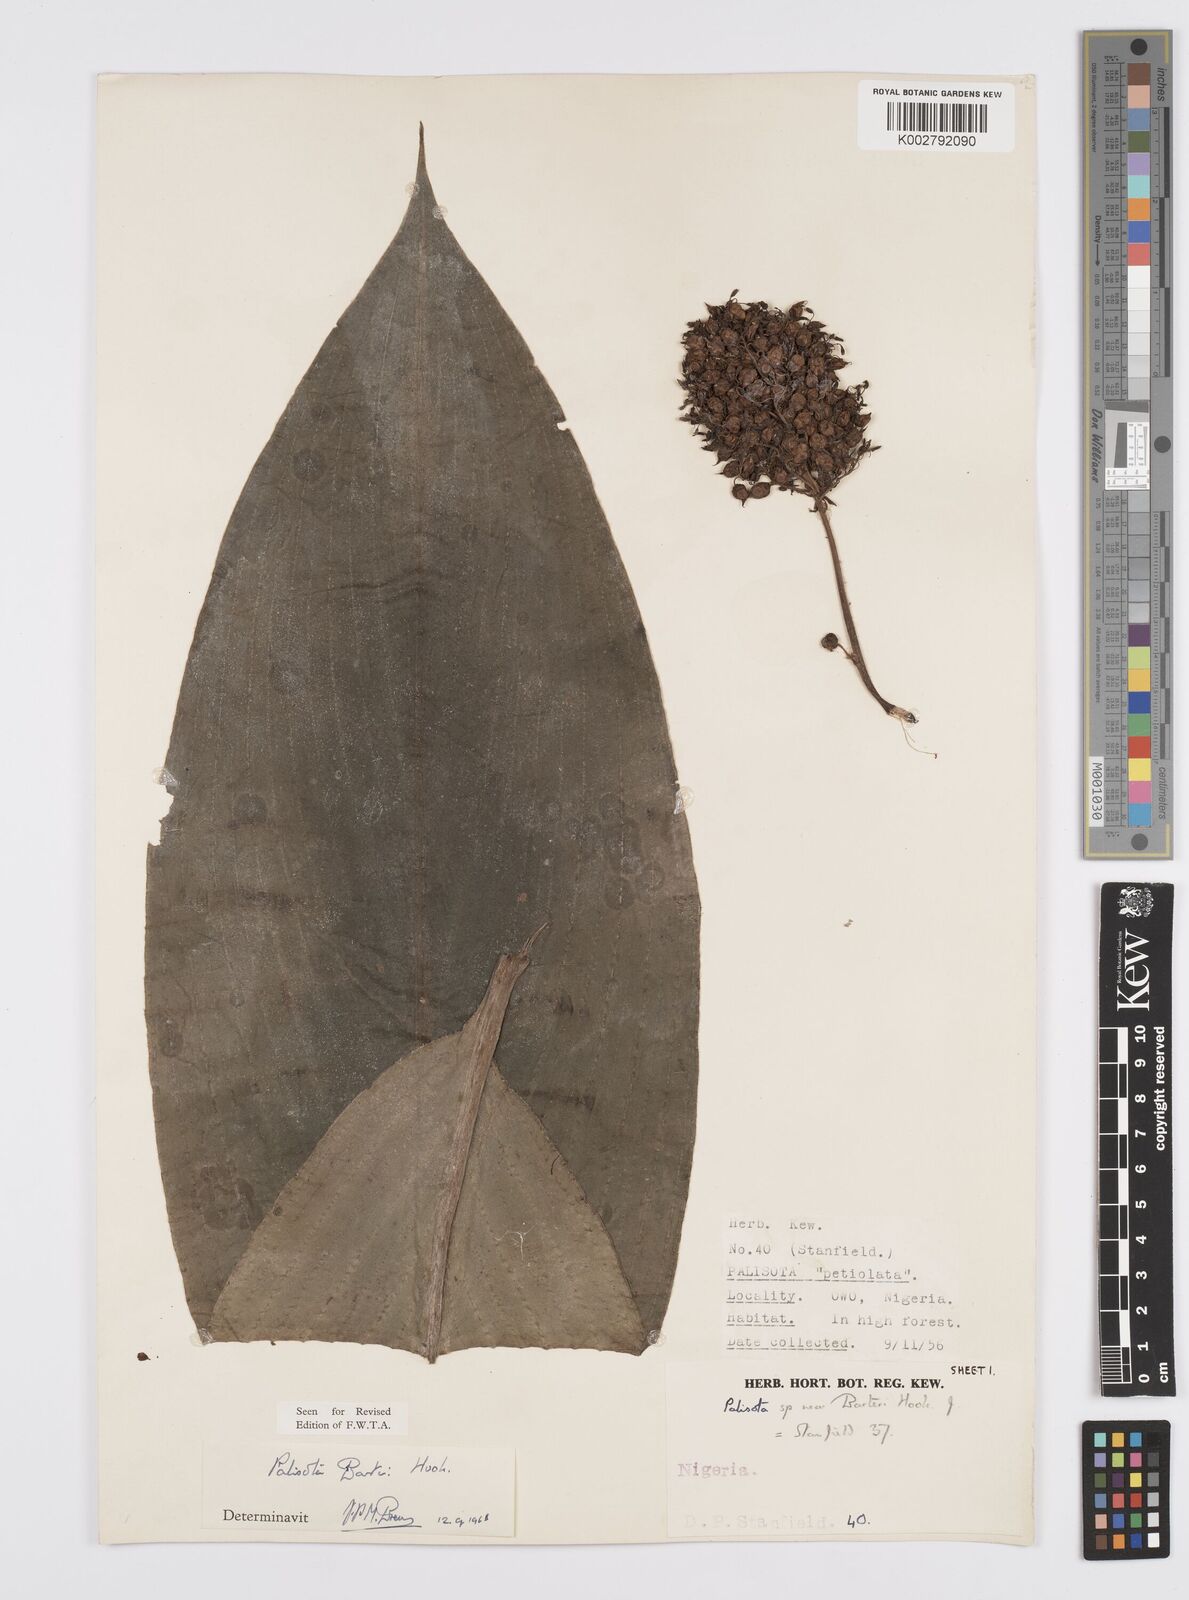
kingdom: Plantae
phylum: Tracheophyta
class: Liliopsida
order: Commelinales
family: Commelinaceae
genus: Palisota
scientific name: Palisota barteri
